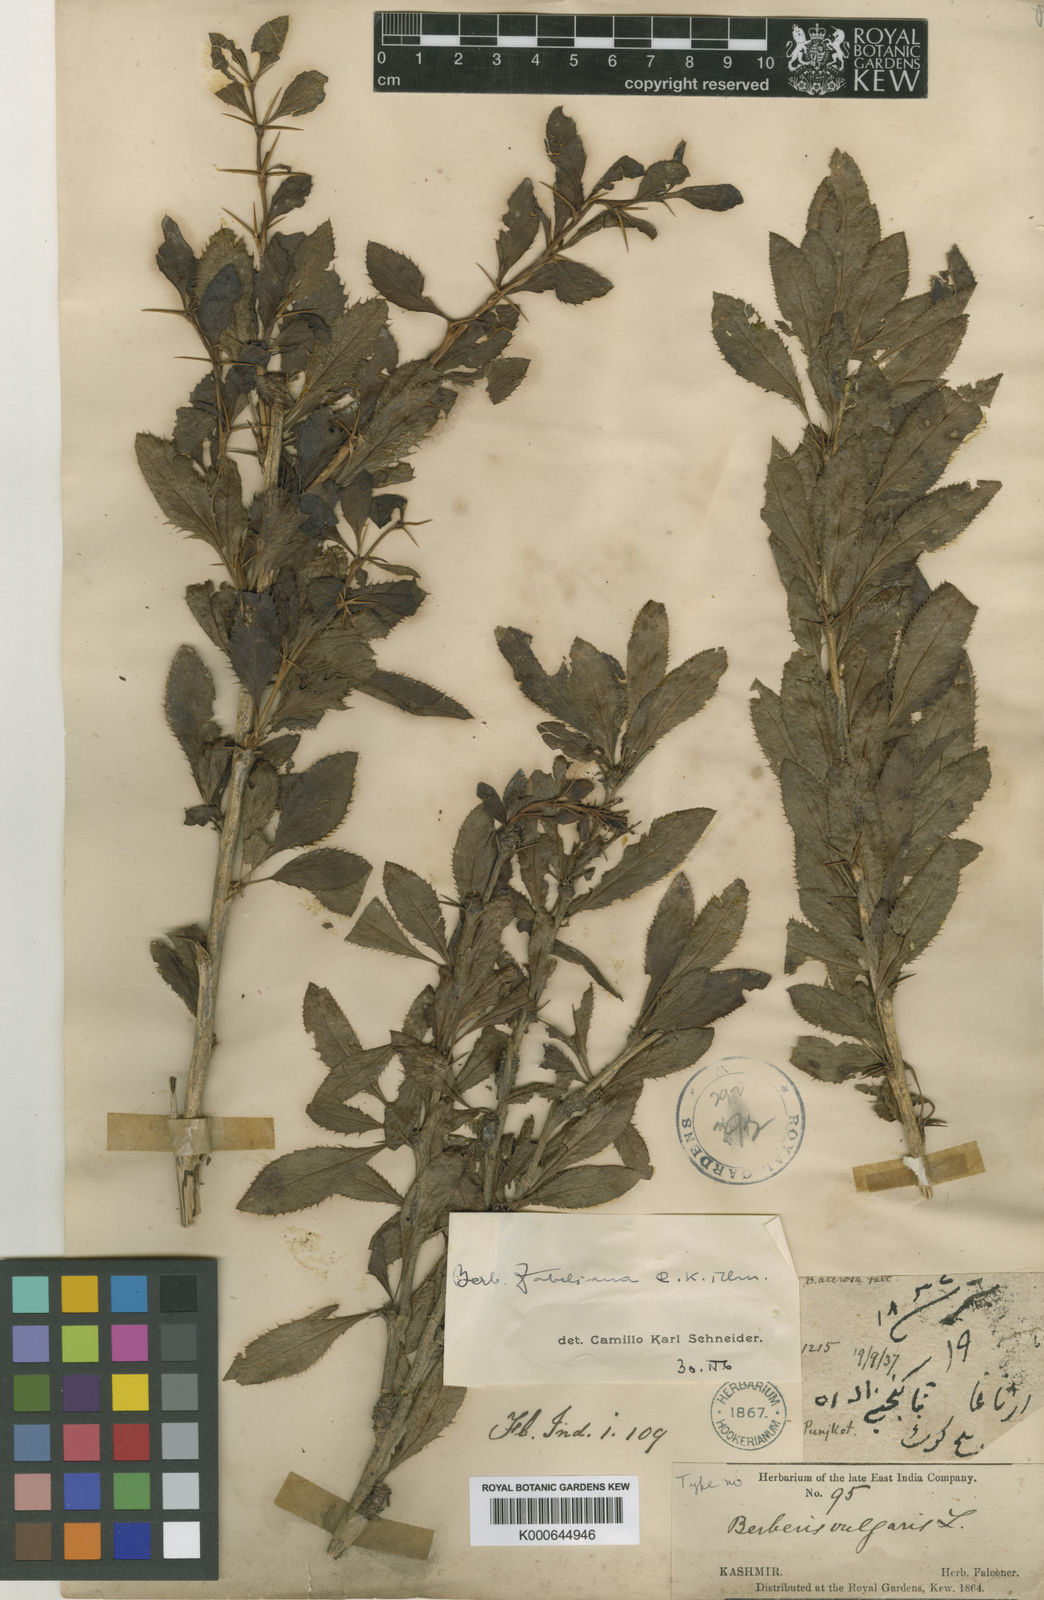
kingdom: Plantae
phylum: Tracheophyta
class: Magnoliopsida
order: Ranunculales
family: Berberidaceae
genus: Berberis
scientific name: Berberis pachyacantha
